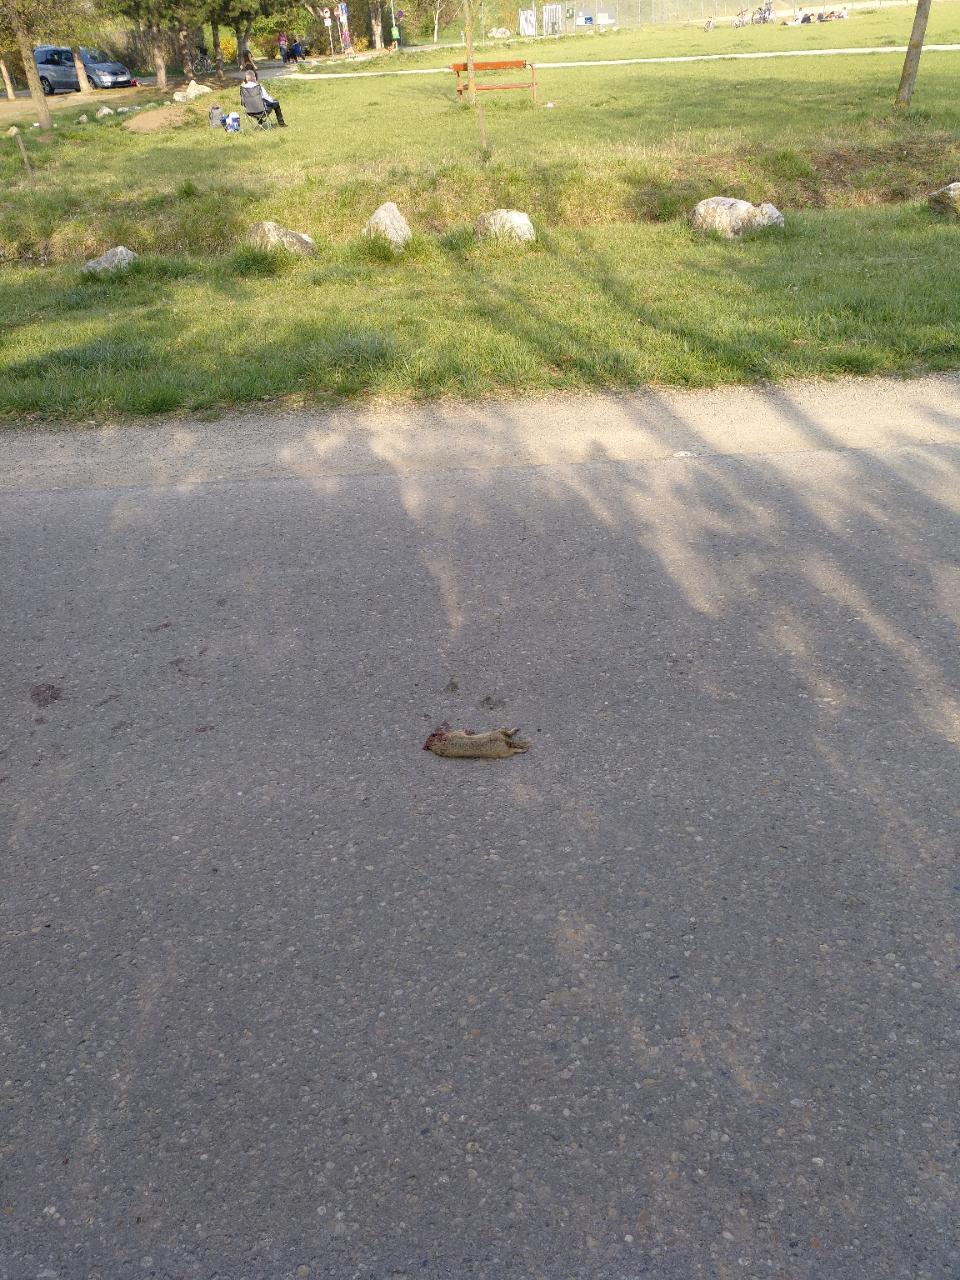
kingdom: Animalia
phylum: Chordata
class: Mammalia
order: Rodentia
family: Sciuridae
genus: Spermophilus
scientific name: Spermophilus citellus
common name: European ground squirrel
